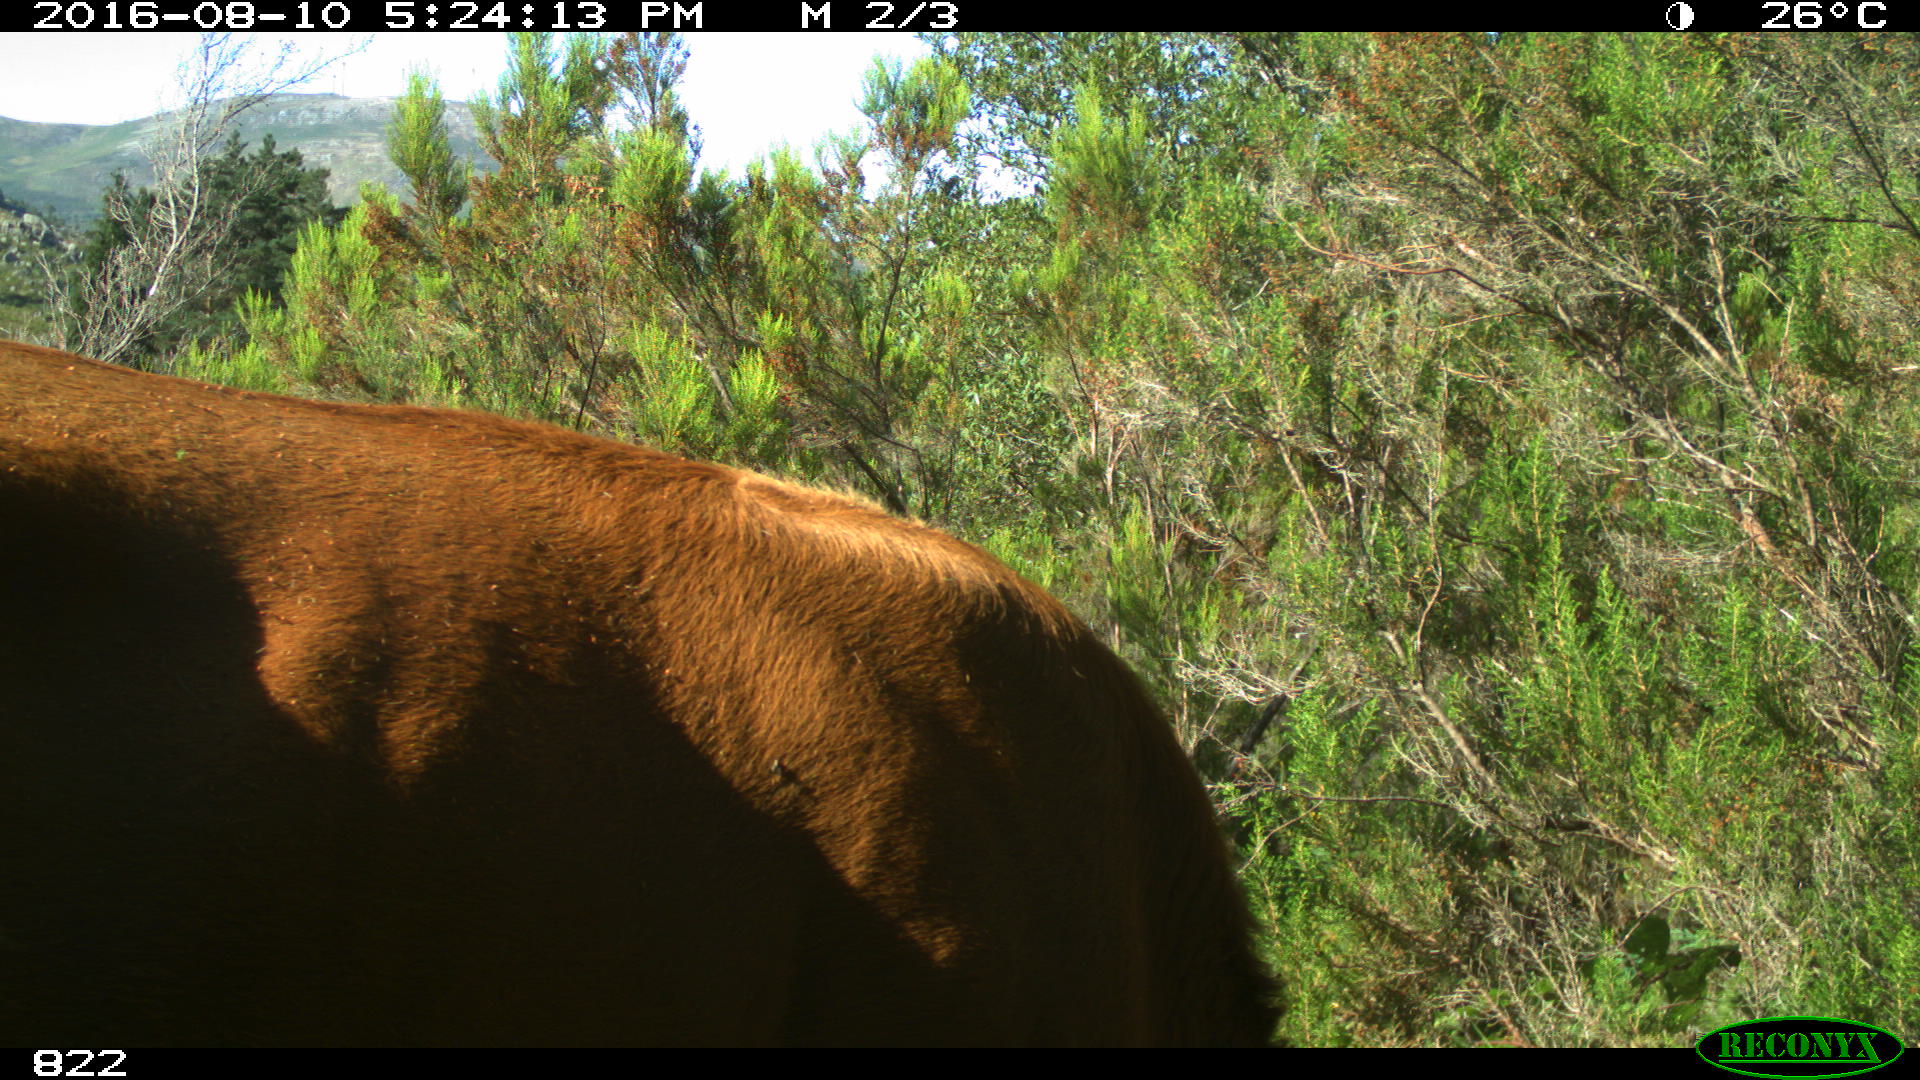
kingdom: Animalia
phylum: Chordata
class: Mammalia
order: Artiodactyla
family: Bovidae
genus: Bos
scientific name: Bos taurus
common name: Domesticated cattle
